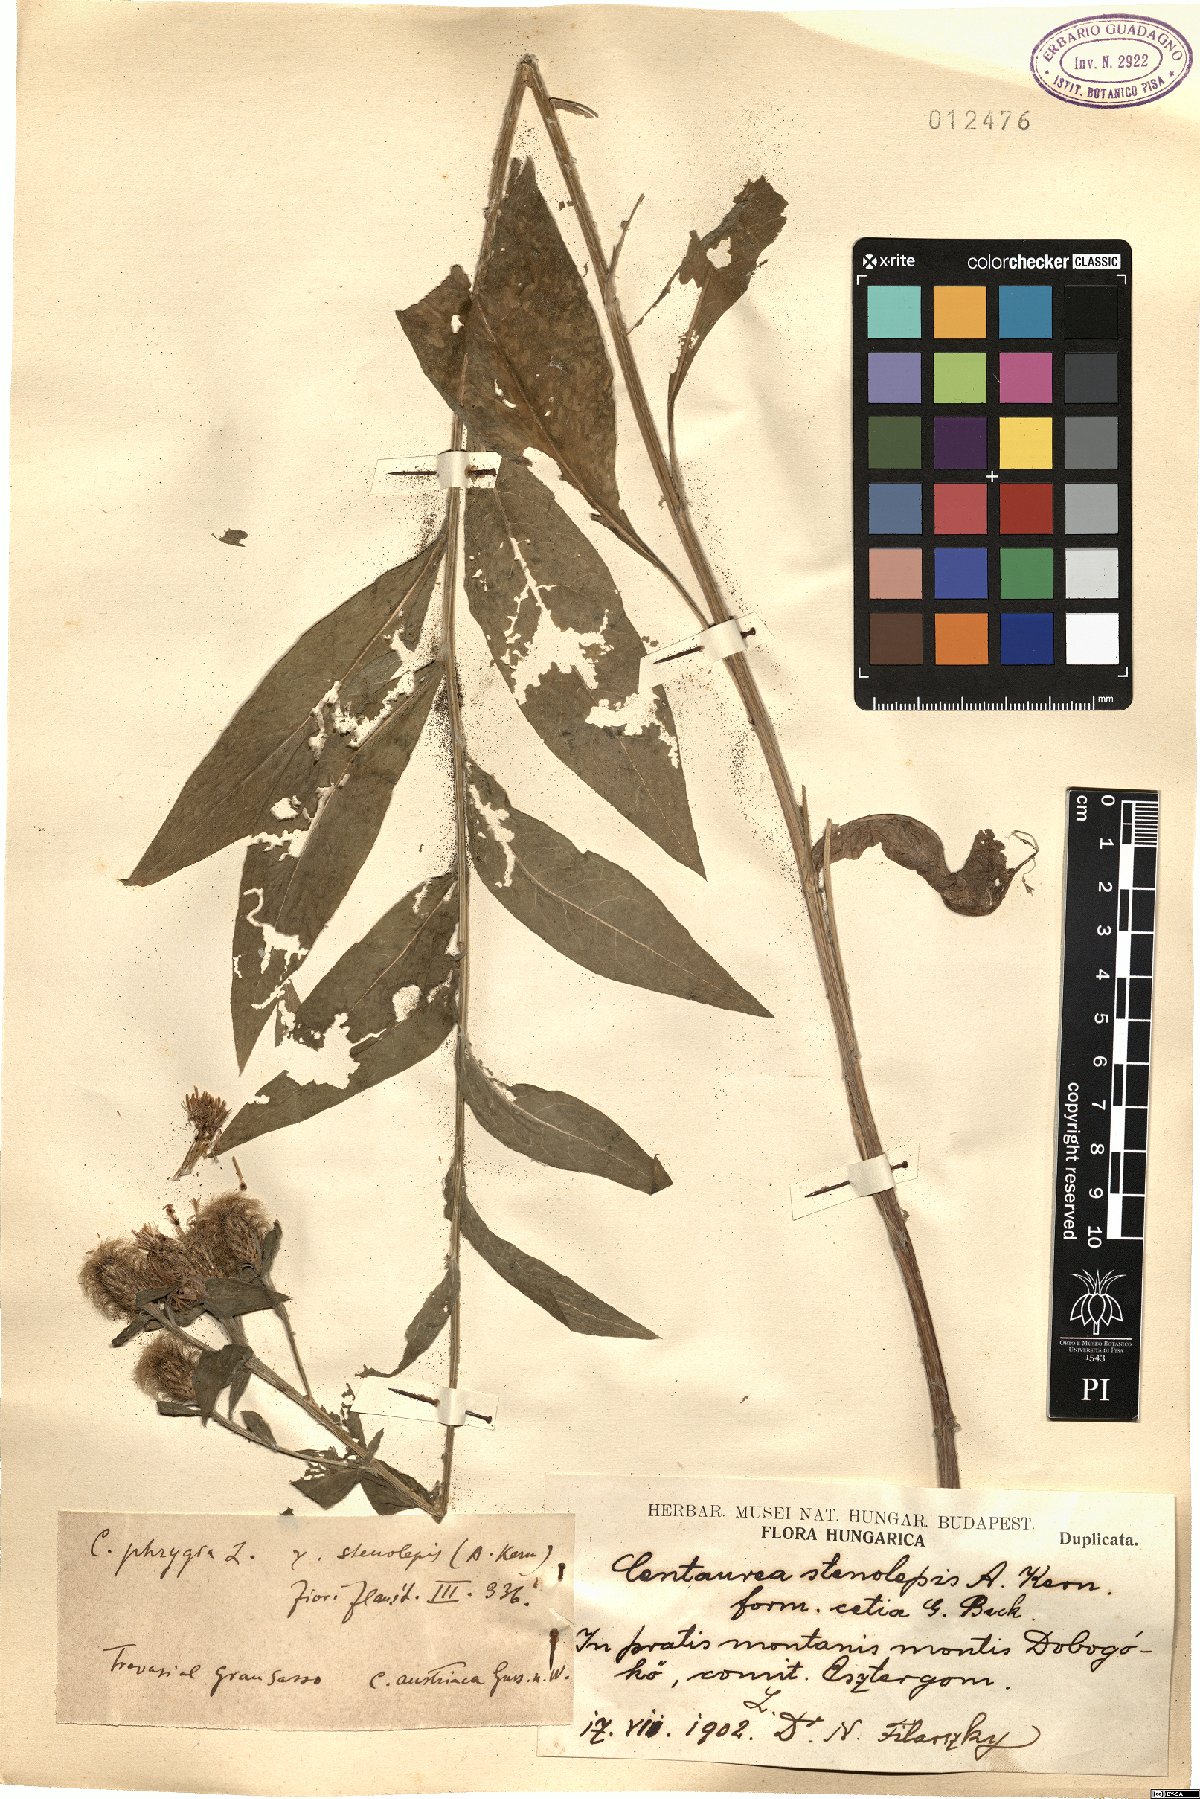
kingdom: Plantae
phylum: Tracheophyta
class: Magnoliopsida
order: Asterales
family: Asteraceae
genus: Centaurea
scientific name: Centaurea stenolepis
